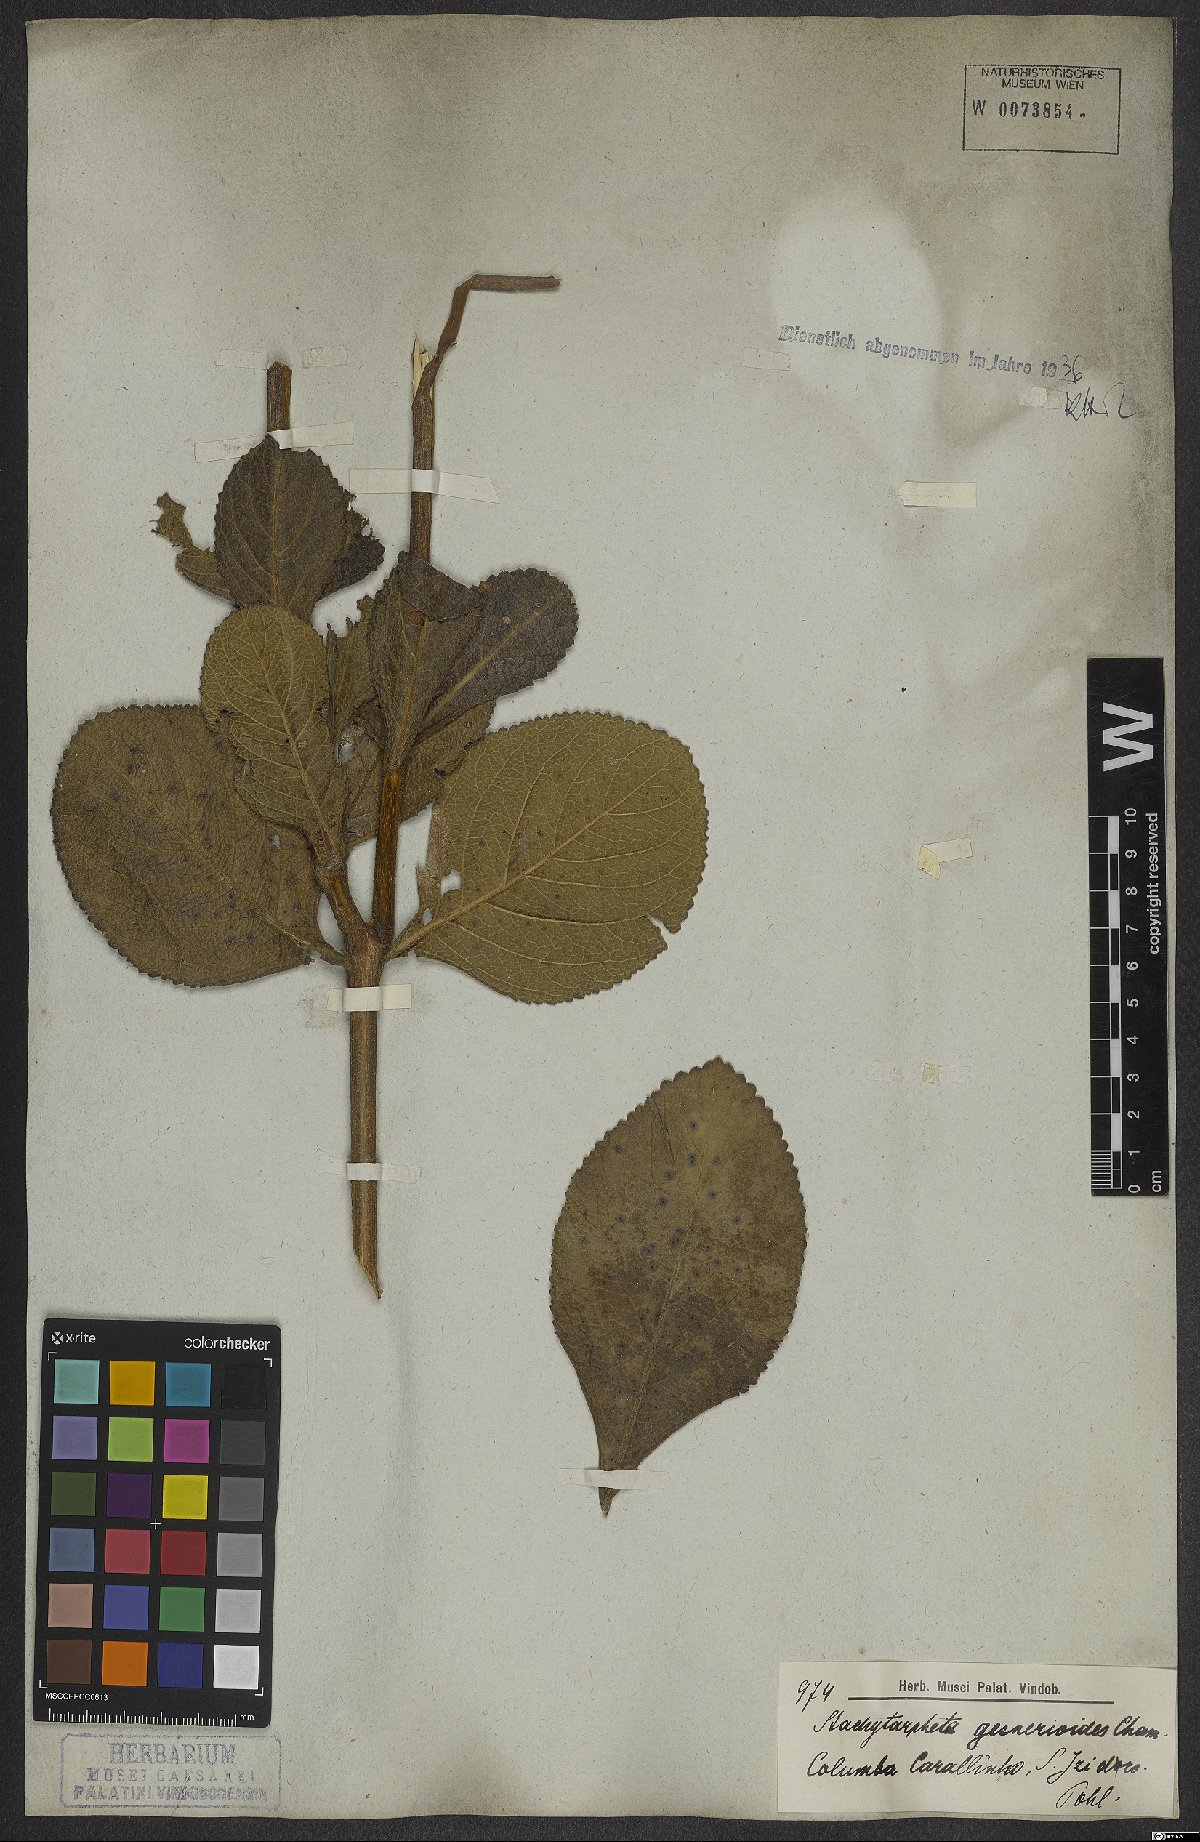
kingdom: Plantae
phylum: Tracheophyta
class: Magnoliopsida
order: Lamiales
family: Verbenaceae
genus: Stachytarpheta
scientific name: Stachytarpheta gesnerioides
